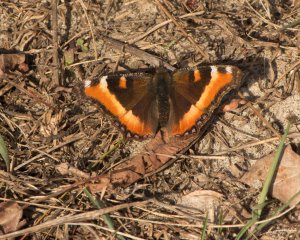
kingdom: Animalia
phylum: Arthropoda
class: Insecta
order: Lepidoptera
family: Nymphalidae
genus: Aglais
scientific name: Aglais milberti
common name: Milbert's Tortoiseshell
